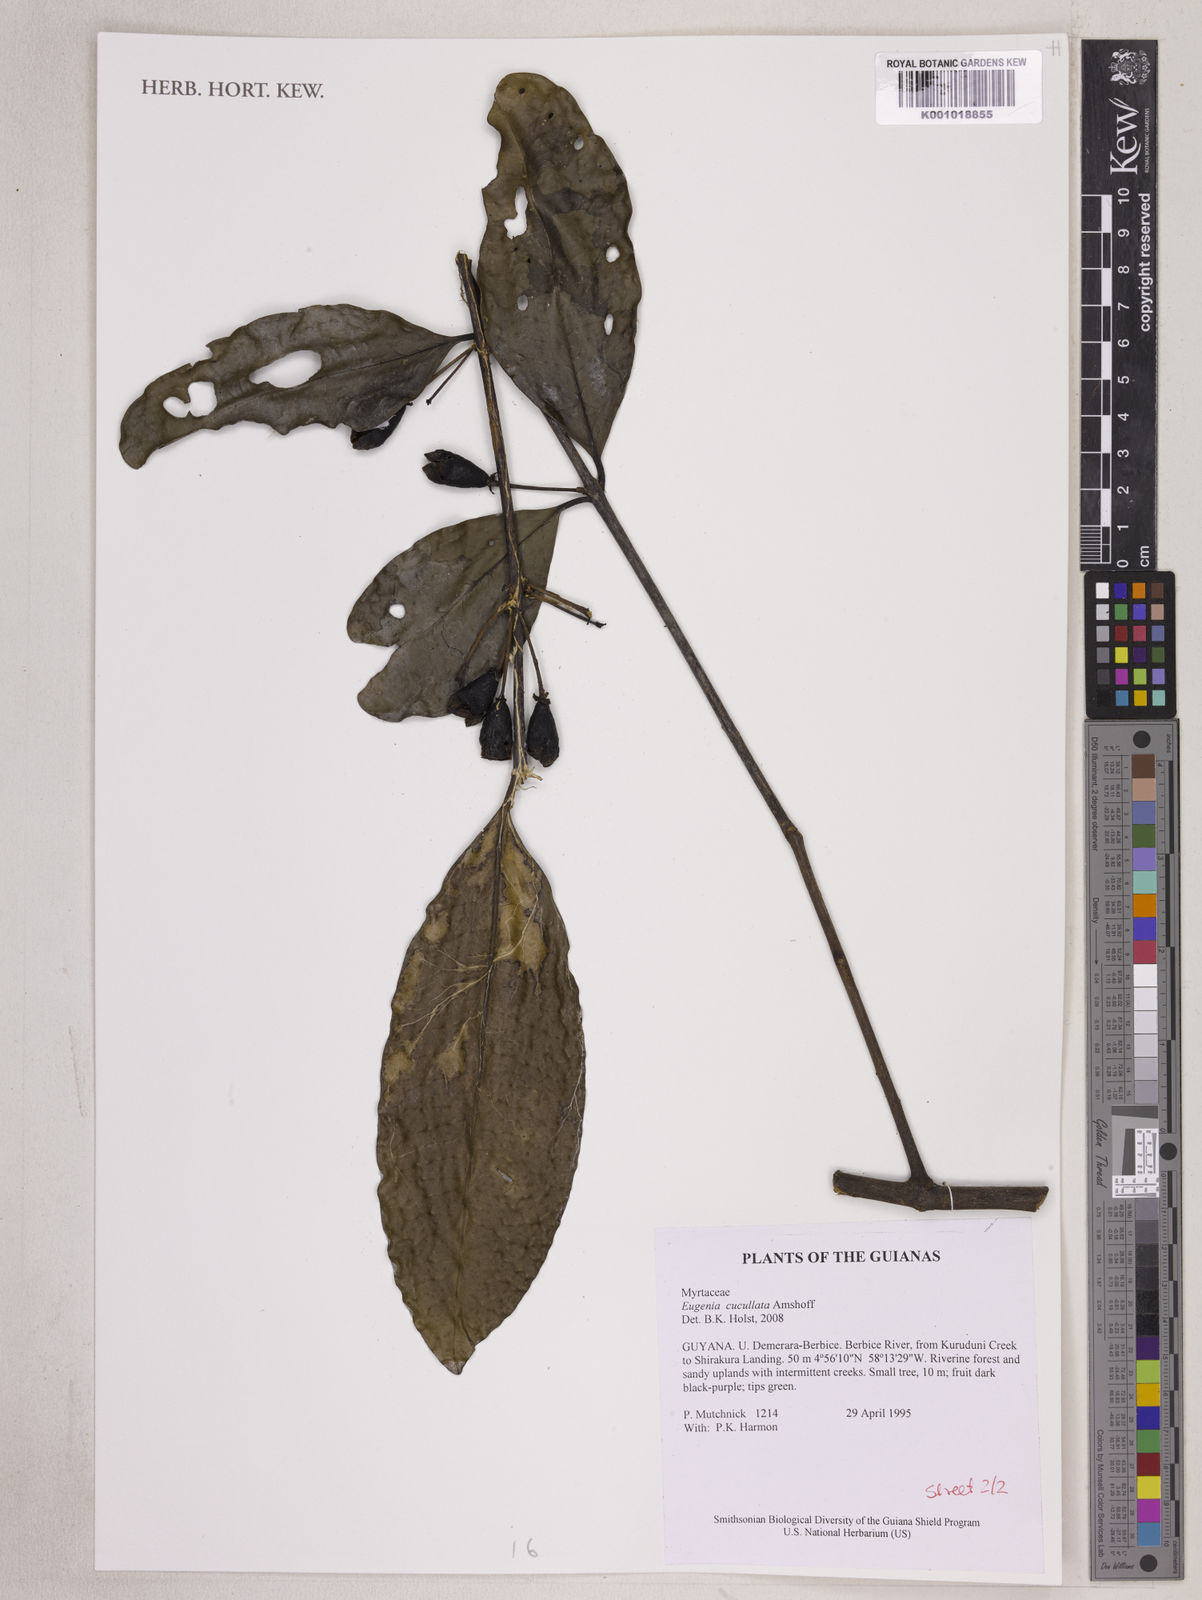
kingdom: Plantae
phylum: Tracheophyta
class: Magnoliopsida
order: Myrtales
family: Myrtaceae
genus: Eugenia
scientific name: Eugenia cucullata
